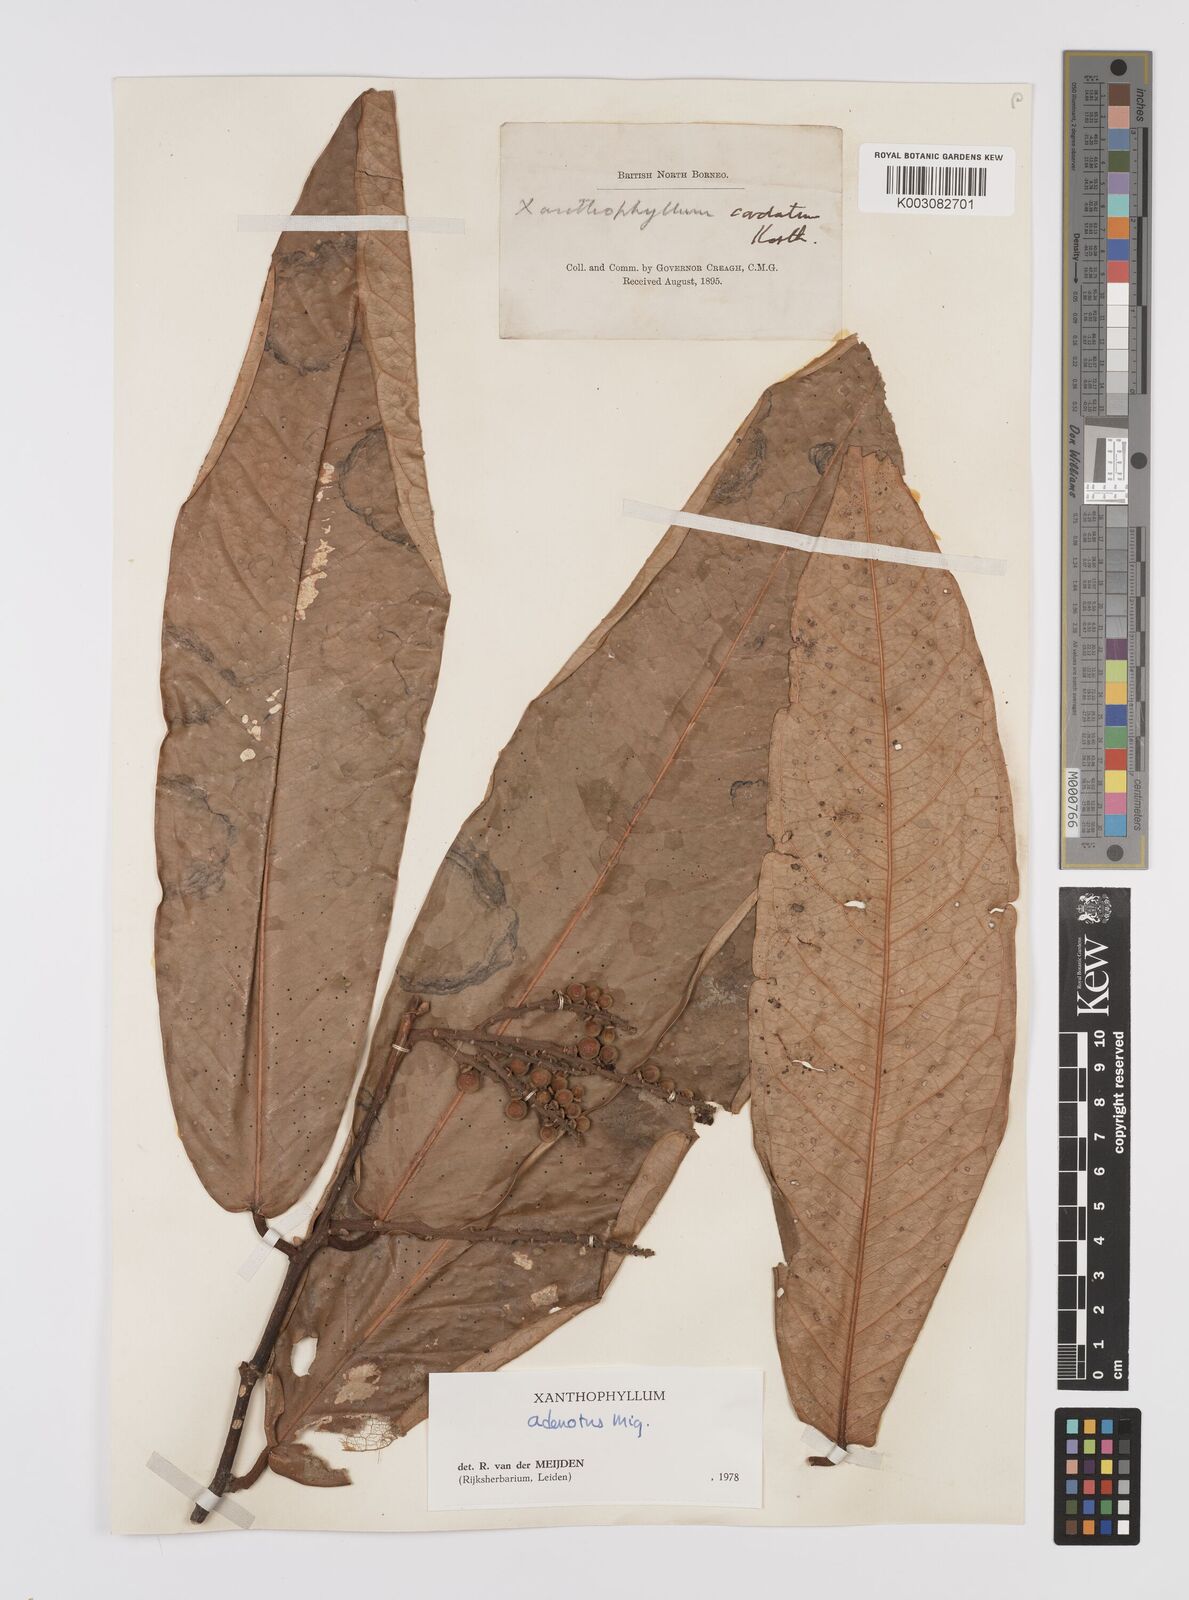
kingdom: Plantae
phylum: Tracheophyta
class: Magnoliopsida
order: Fabales
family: Polygalaceae
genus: Xanthophyllum
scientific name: Xanthophyllum adenotus
